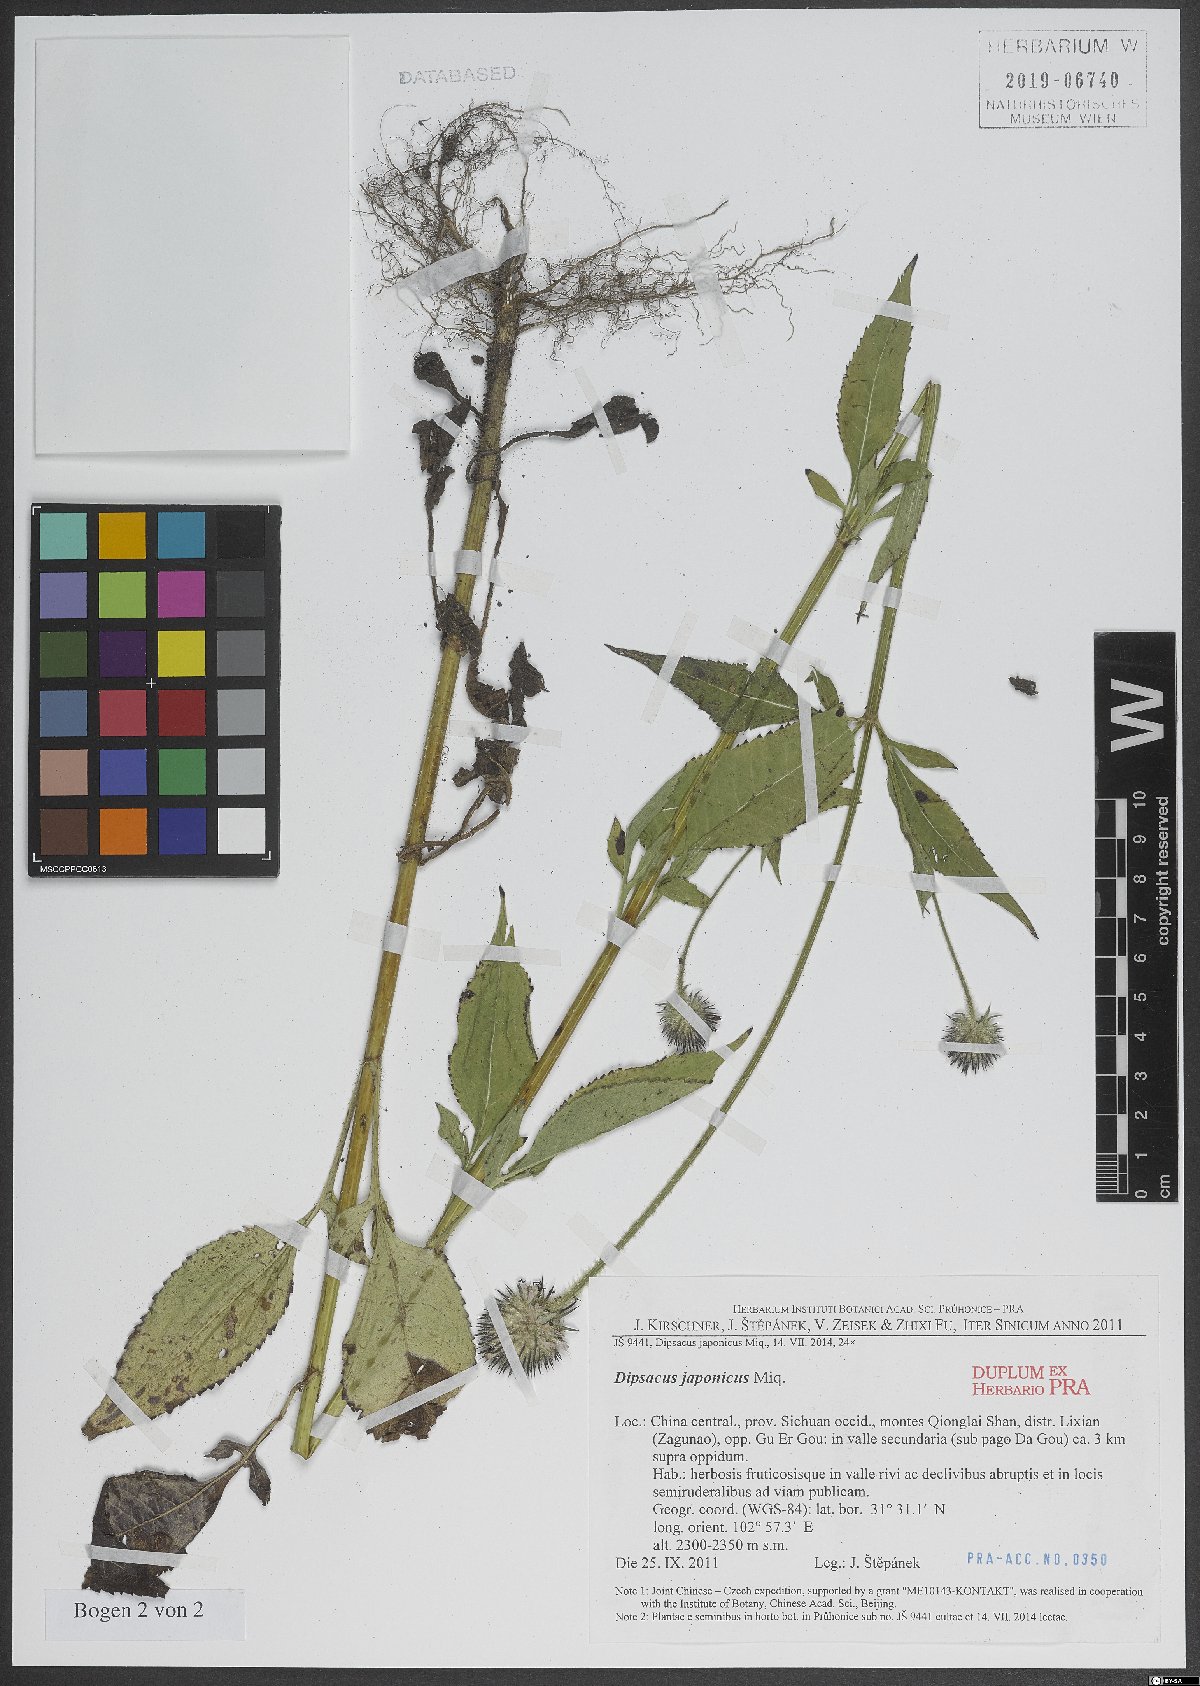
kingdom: Plantae
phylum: Tracheophyta
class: Magnoliopsida
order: Dipsacales
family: Caprifoliaceae
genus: Dipsacus
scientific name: Dipsacus
